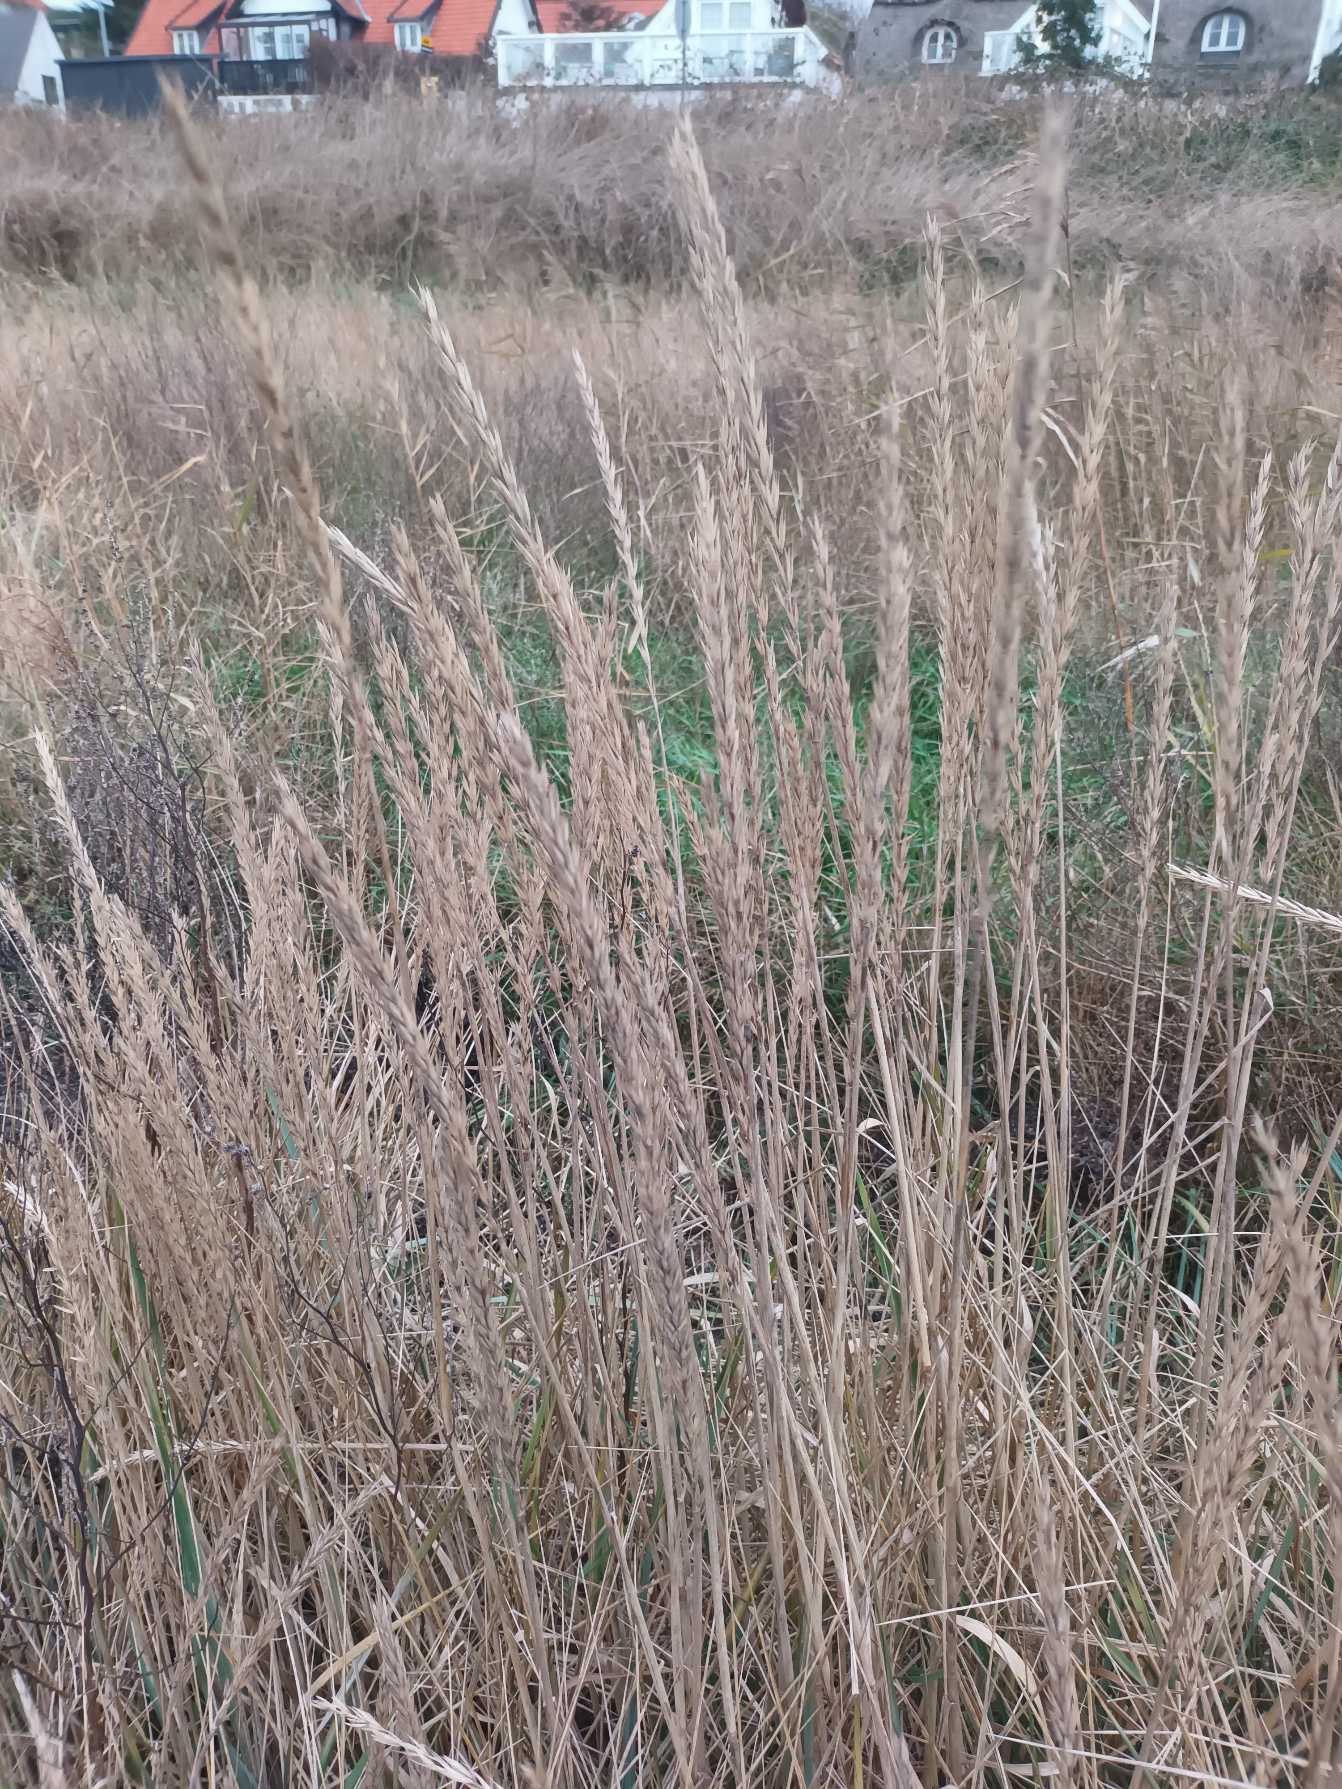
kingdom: Plantae
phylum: Tracheophyta
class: Liliopsida
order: Poales
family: Poaceae
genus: Leymus
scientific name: Leymus arenarius
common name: Marehalm
